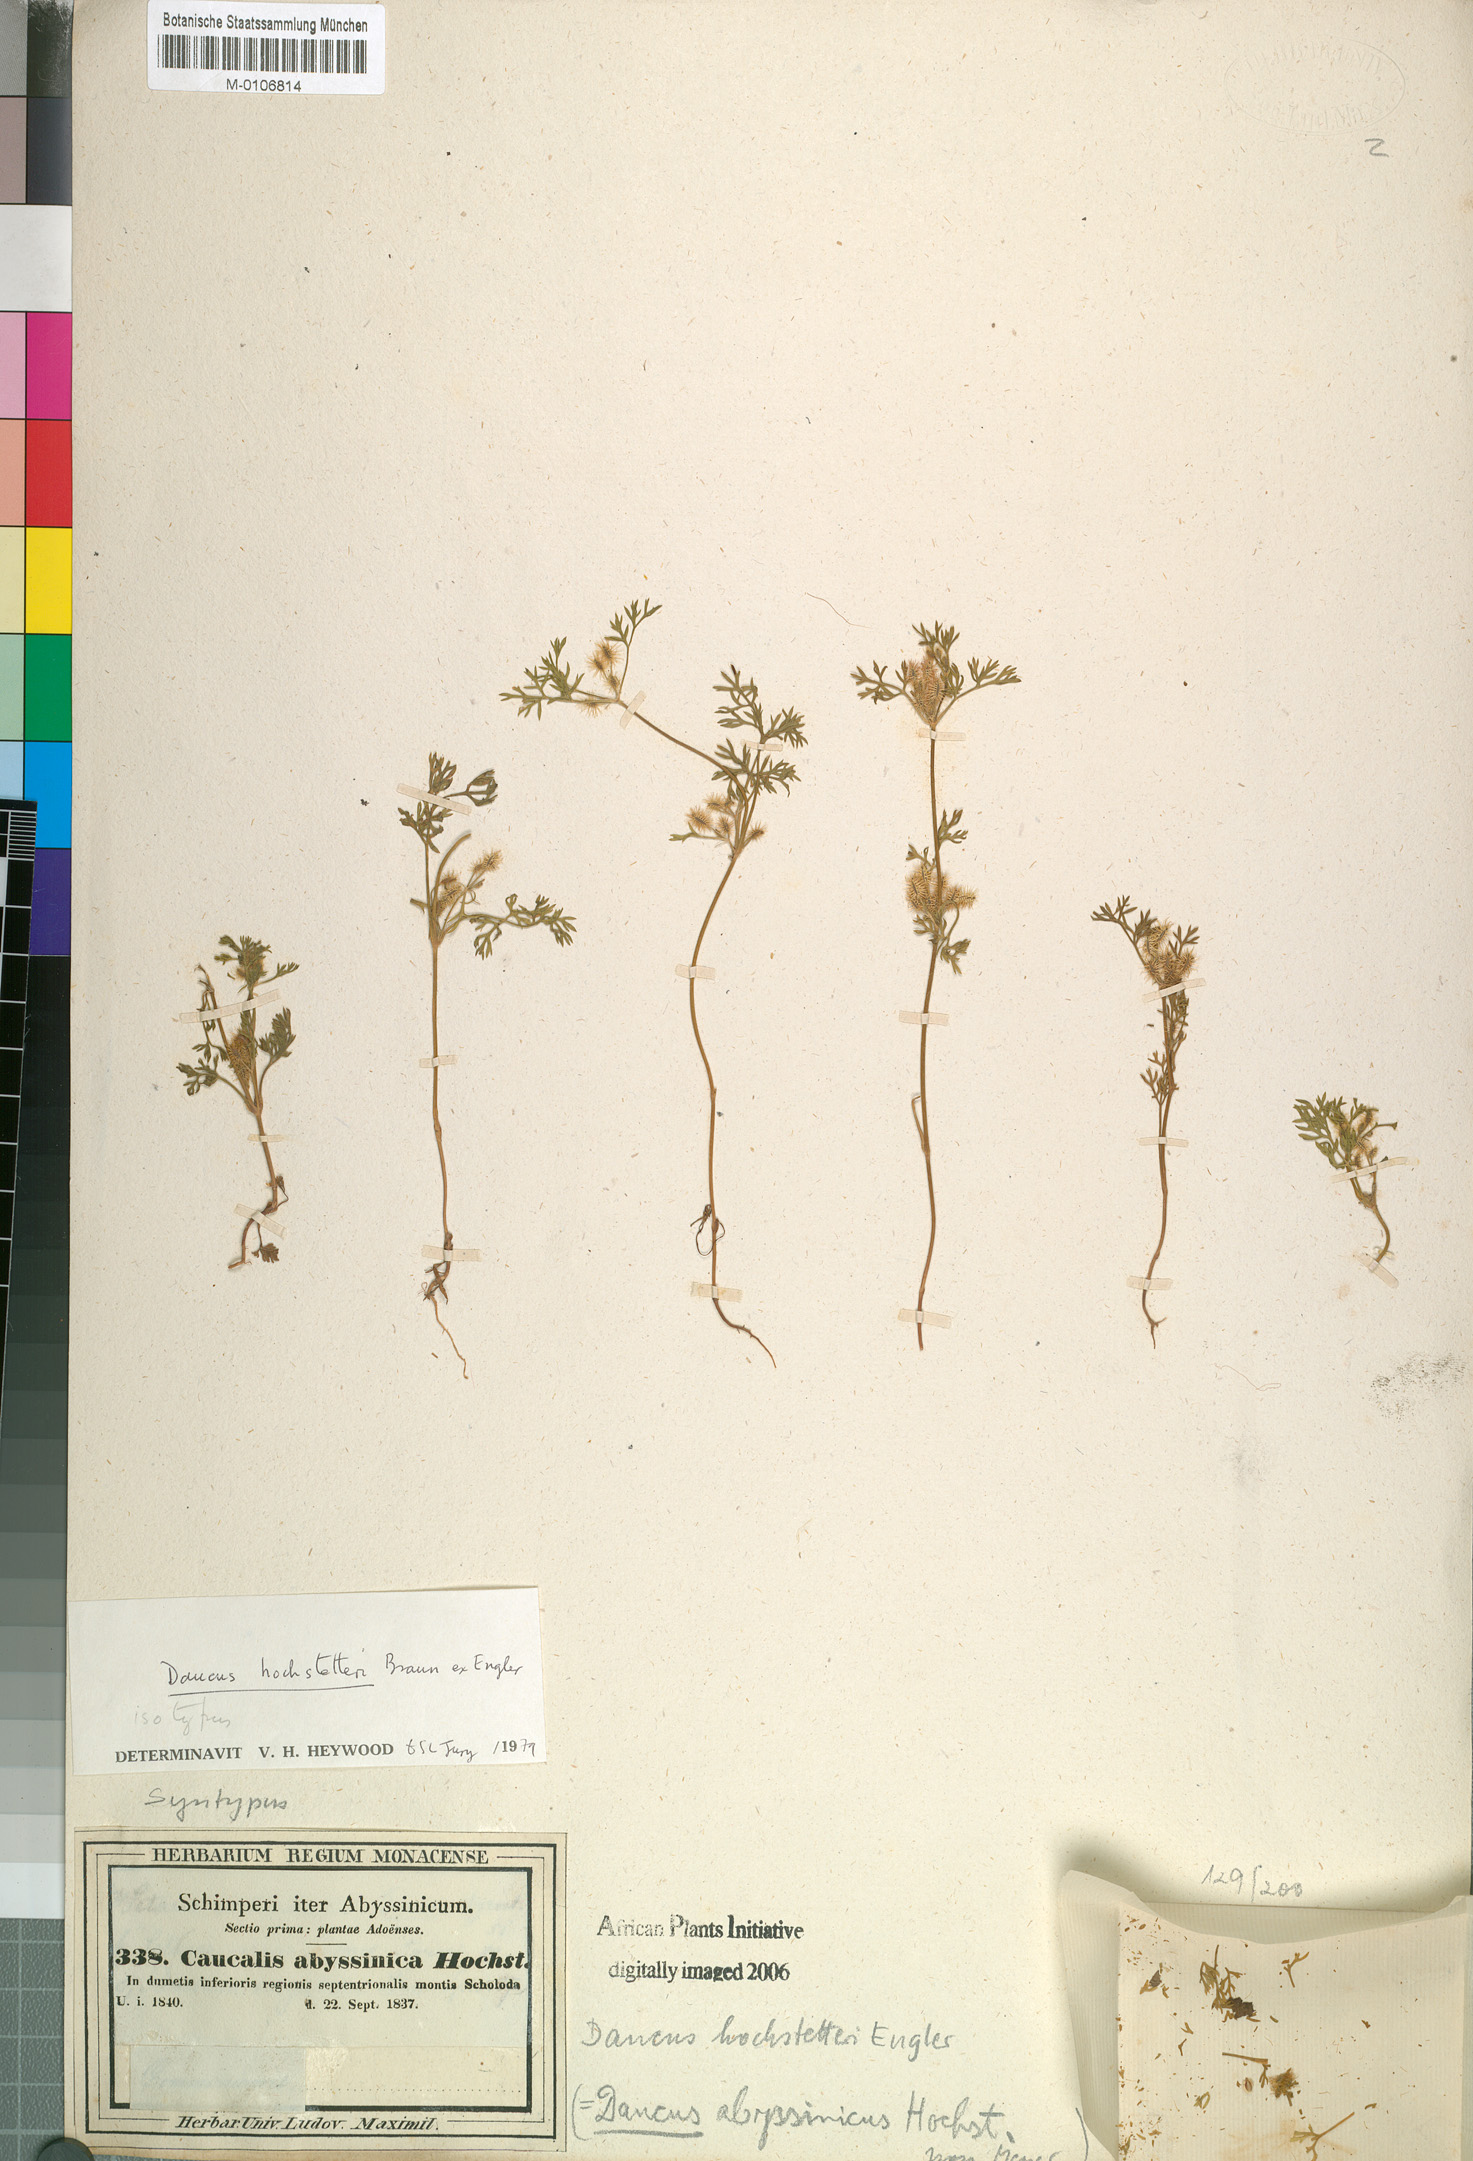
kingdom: Plantae
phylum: Tracheophyta
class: Magnoliopsida
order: Apiales
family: Apiaceae
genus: Daucus
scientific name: Daucus hochstetteri
